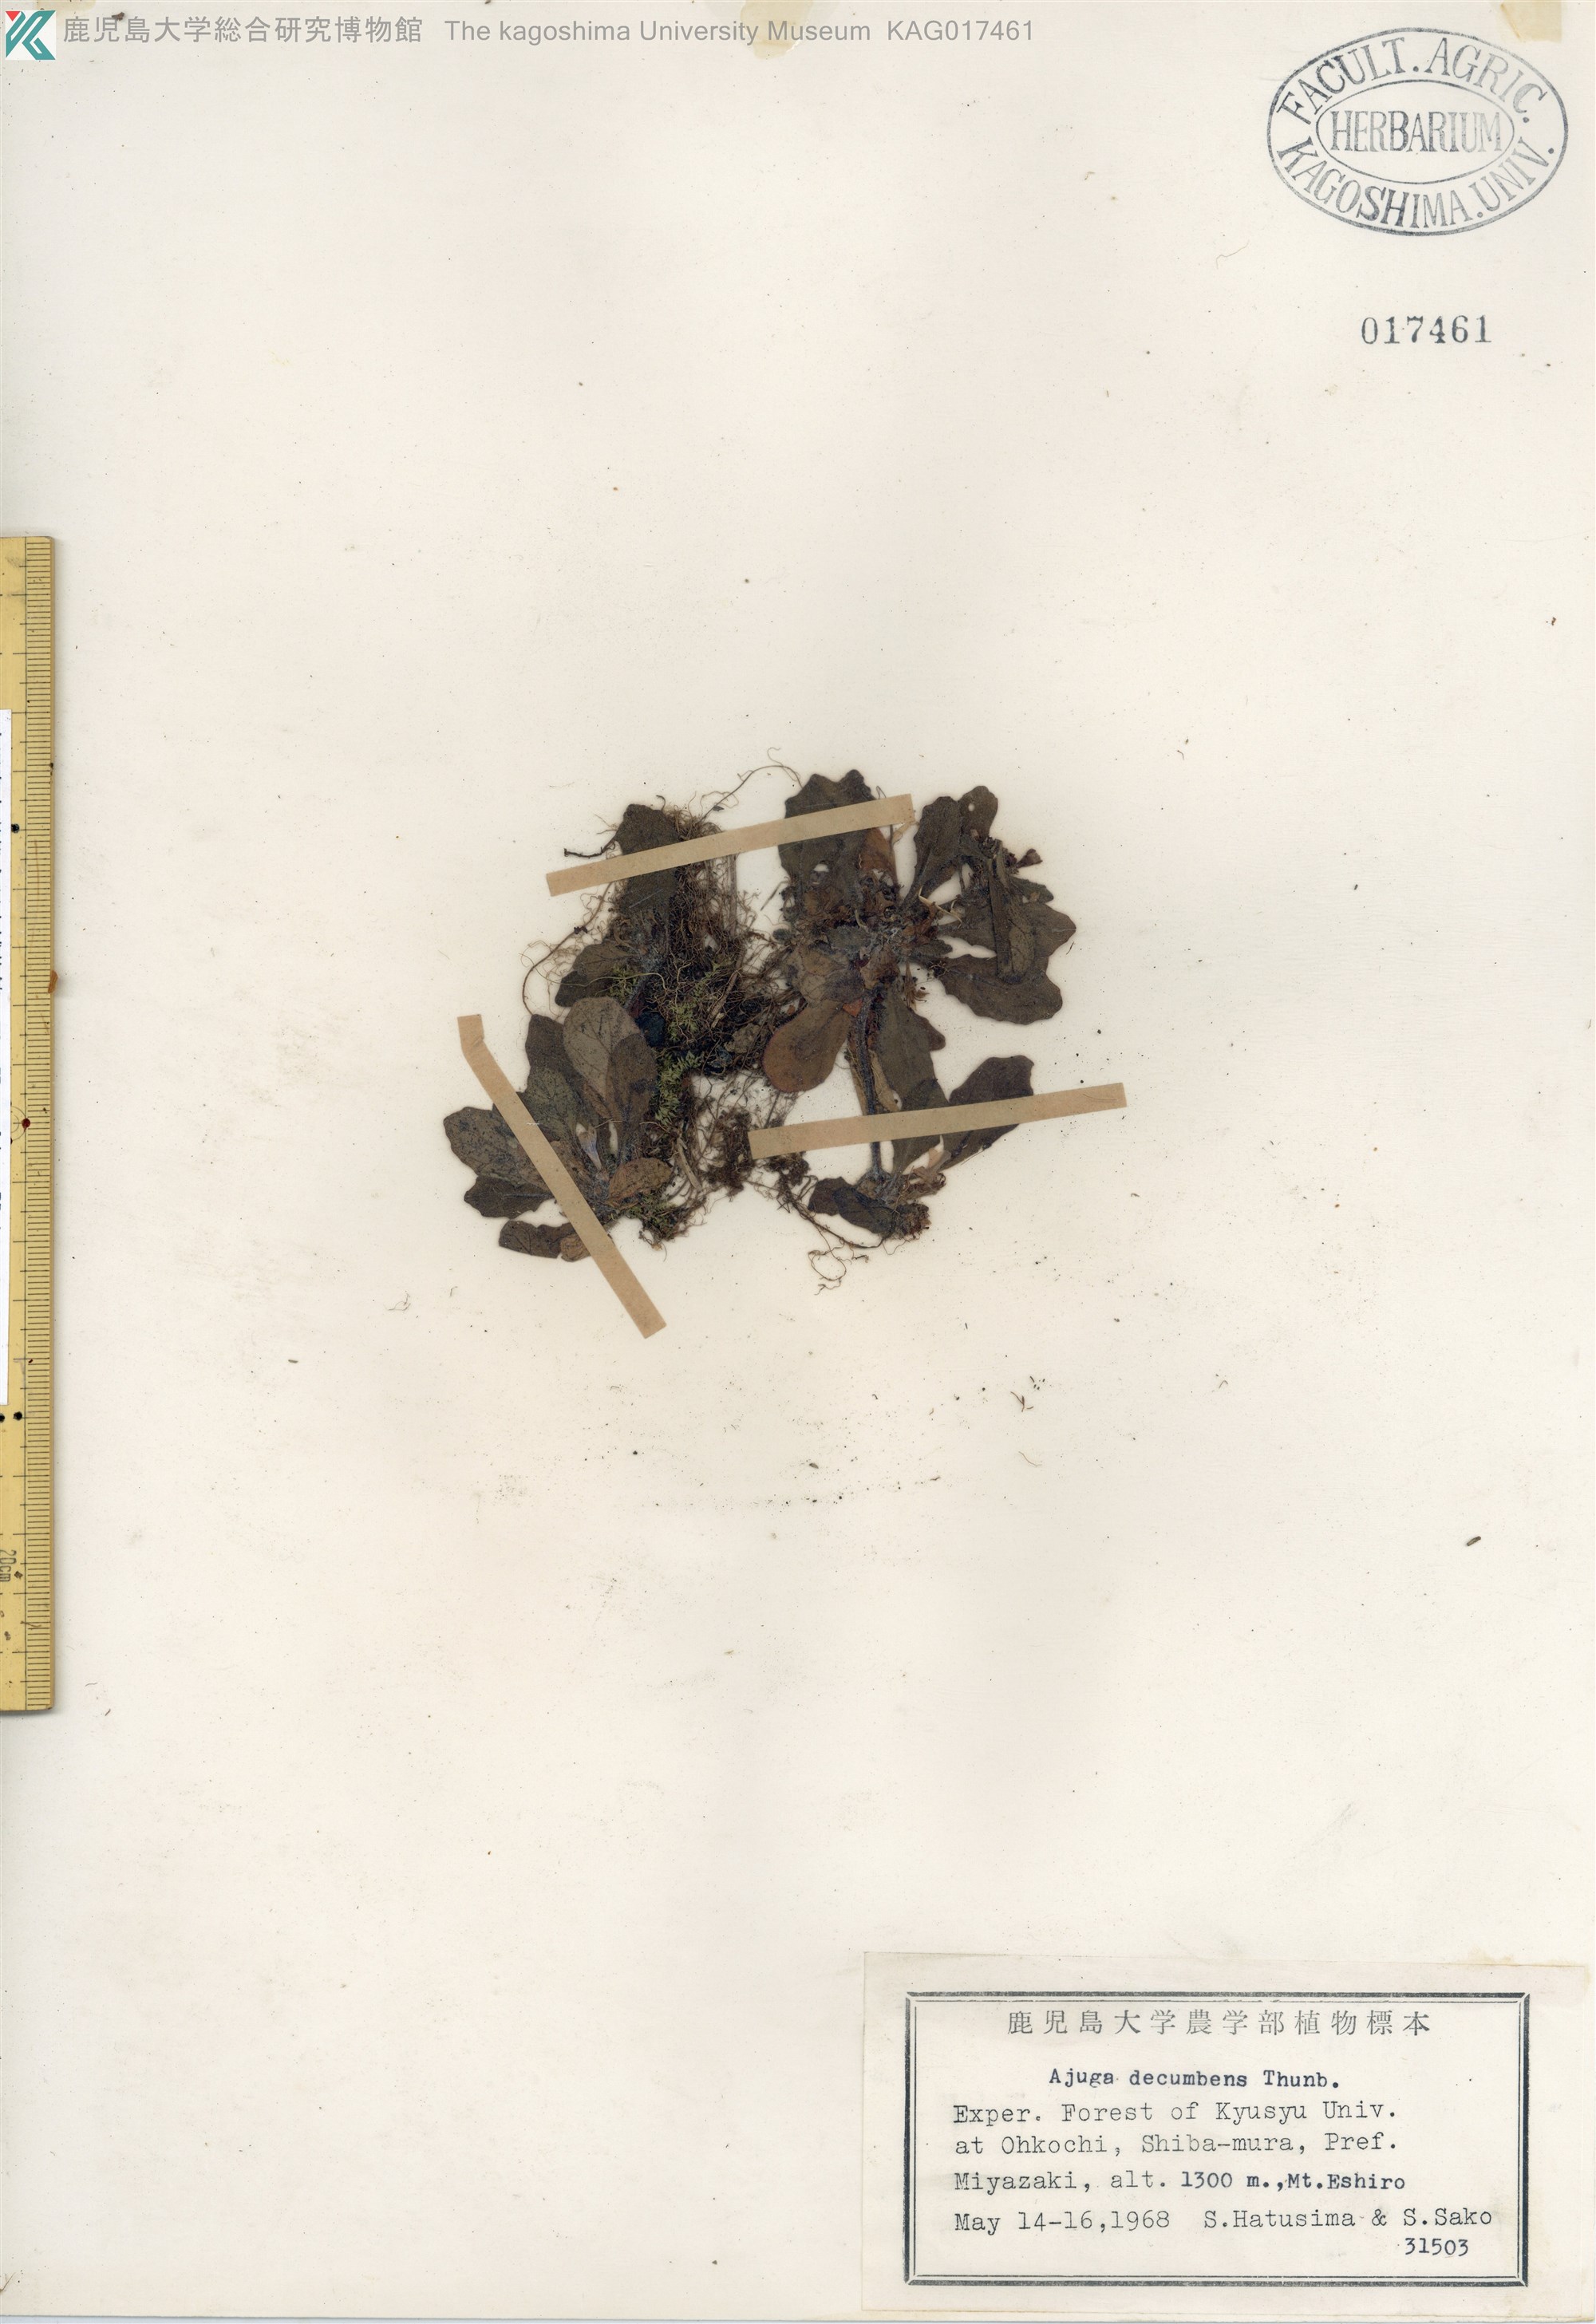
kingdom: Plantae
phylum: Tracheophyta
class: Magnoliopsida
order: Lamiales
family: Lamiaceae
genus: Ajuga
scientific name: Ajuga decumbens
